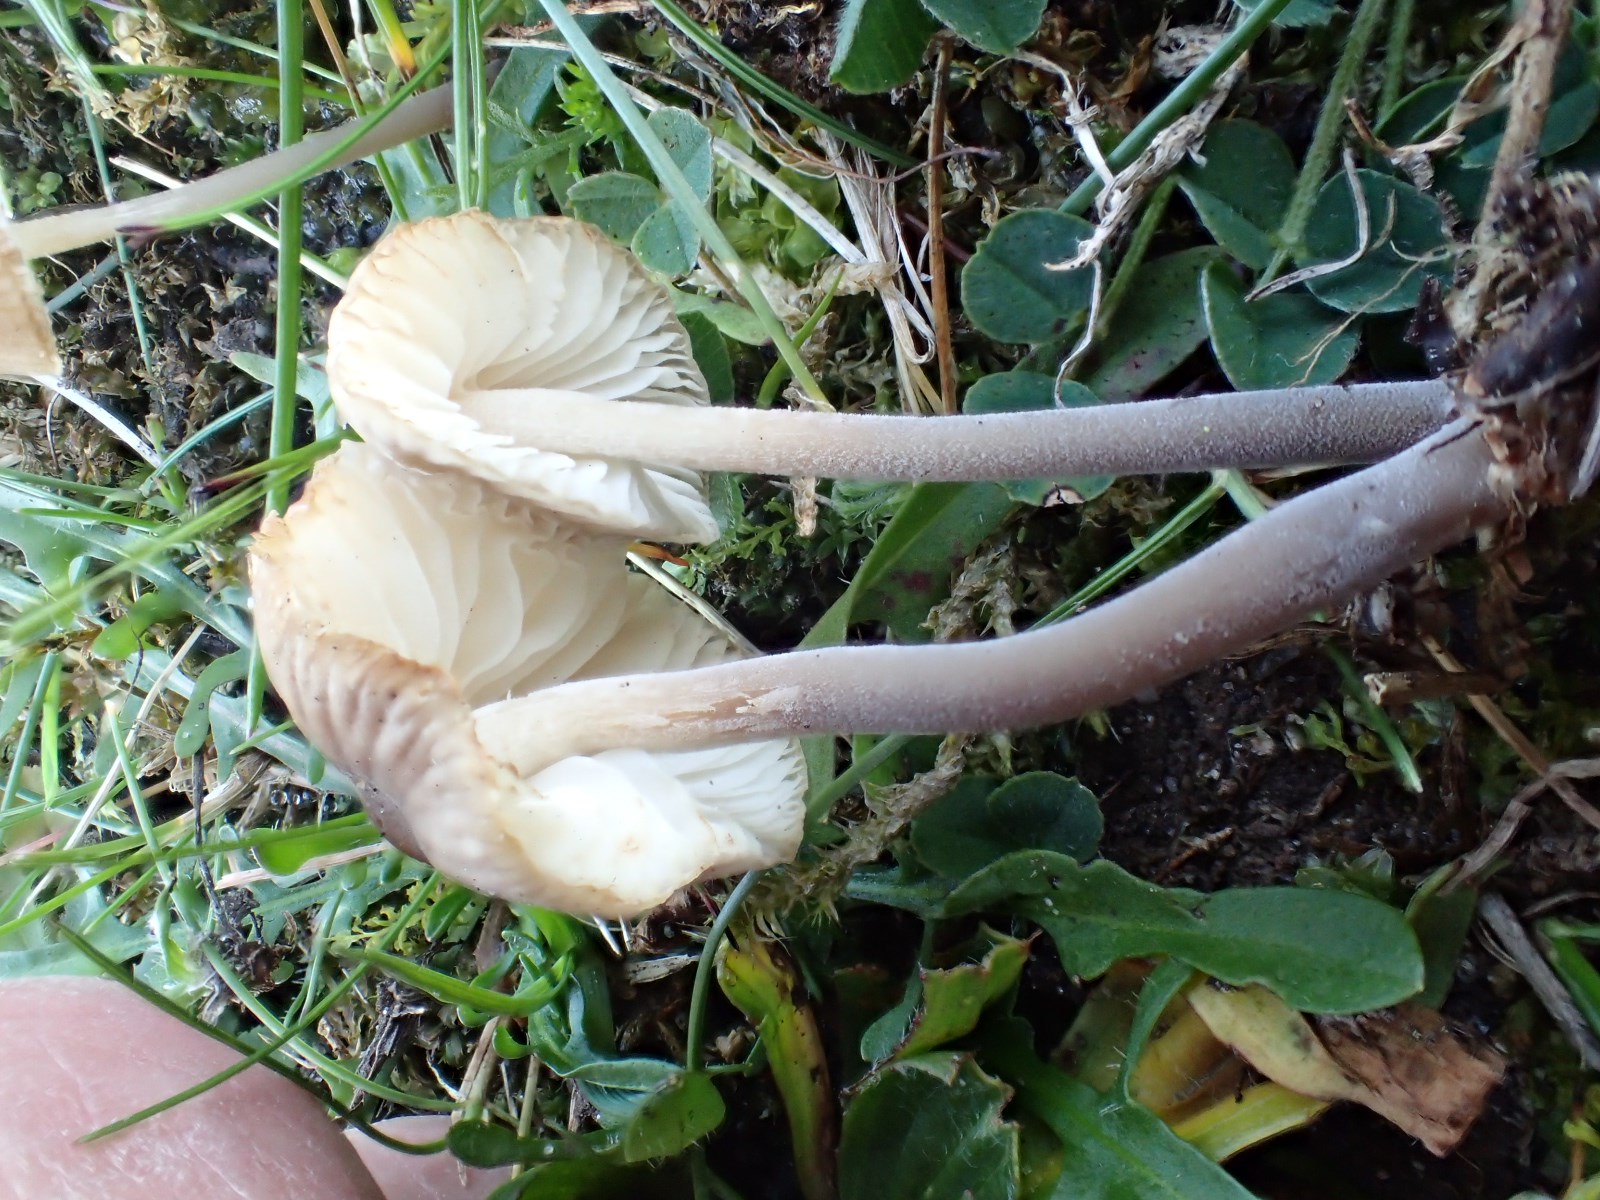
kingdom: Fungi
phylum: Basidiomycota
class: Agaricomycetes
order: Agaricales
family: Tricholomataceae
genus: Mycenella
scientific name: Mycenella bryophila
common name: mos-dughat
